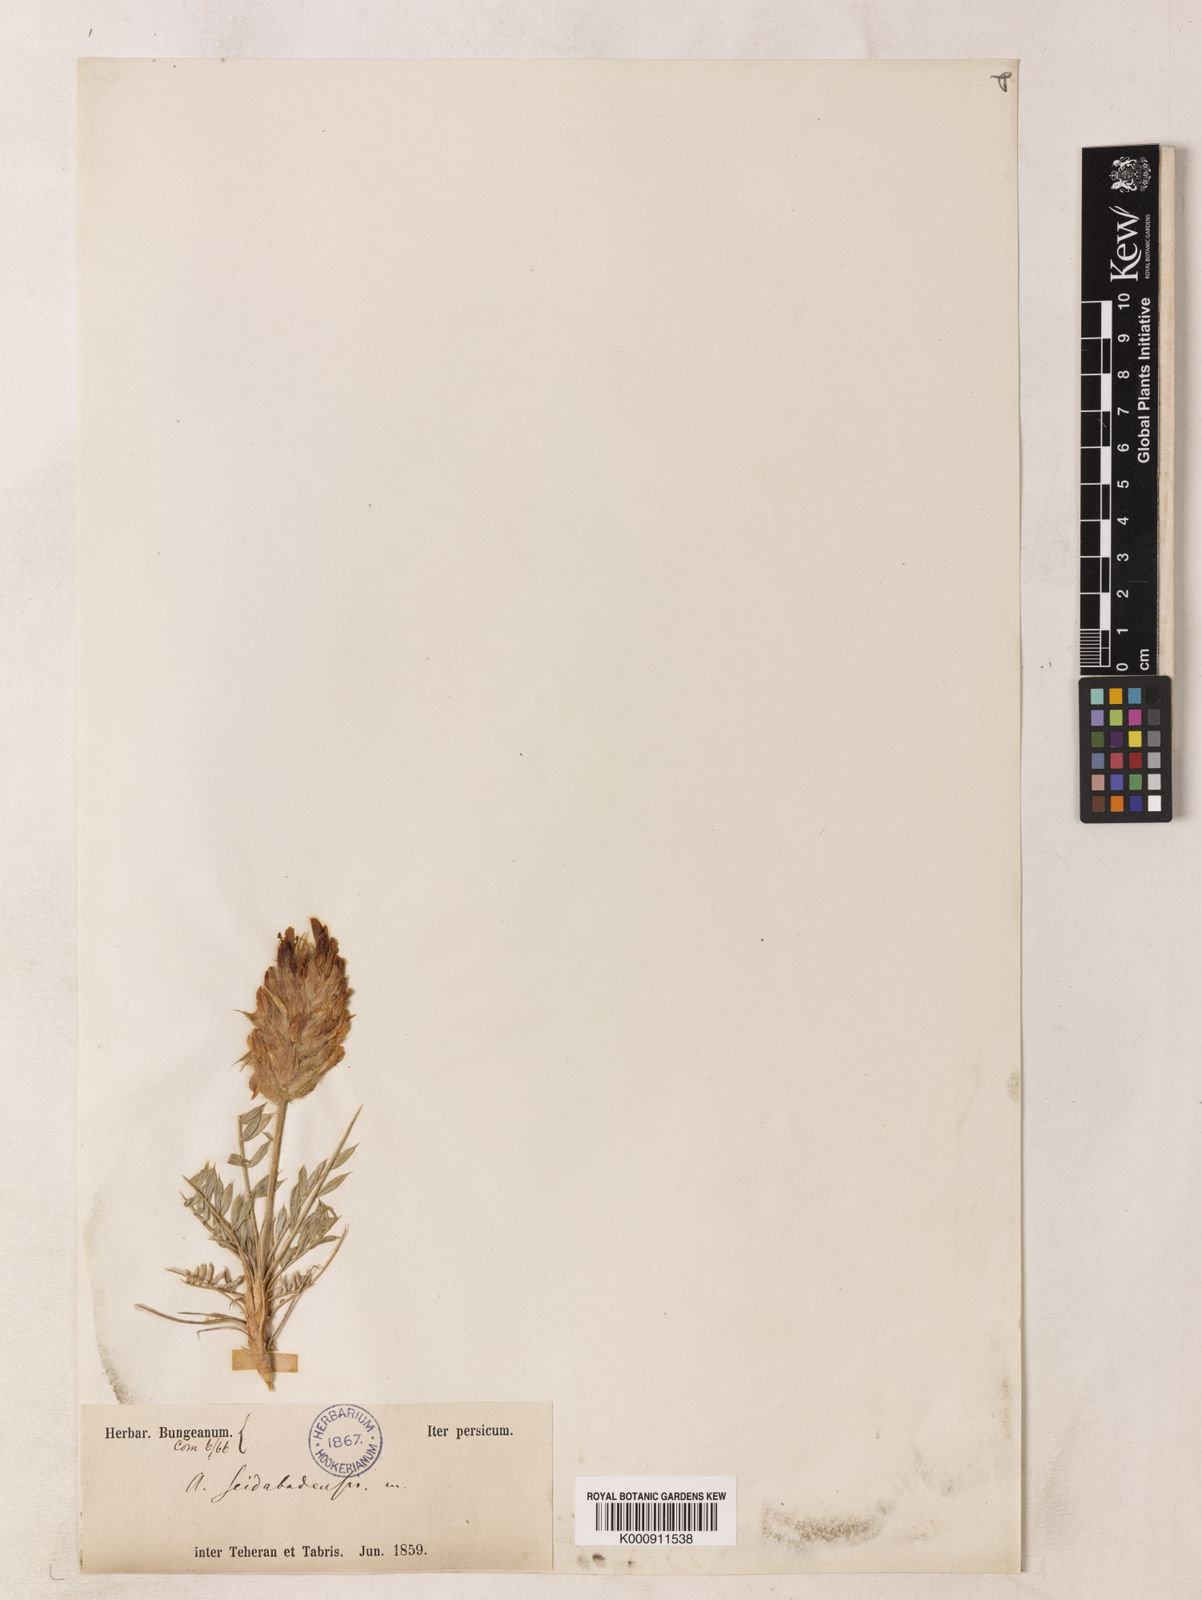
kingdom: Plantae
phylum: Tracheophyta
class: Magnoliopsida
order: Fabales
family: Fabaceae
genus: Astragalus
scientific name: Astragalus persicus
